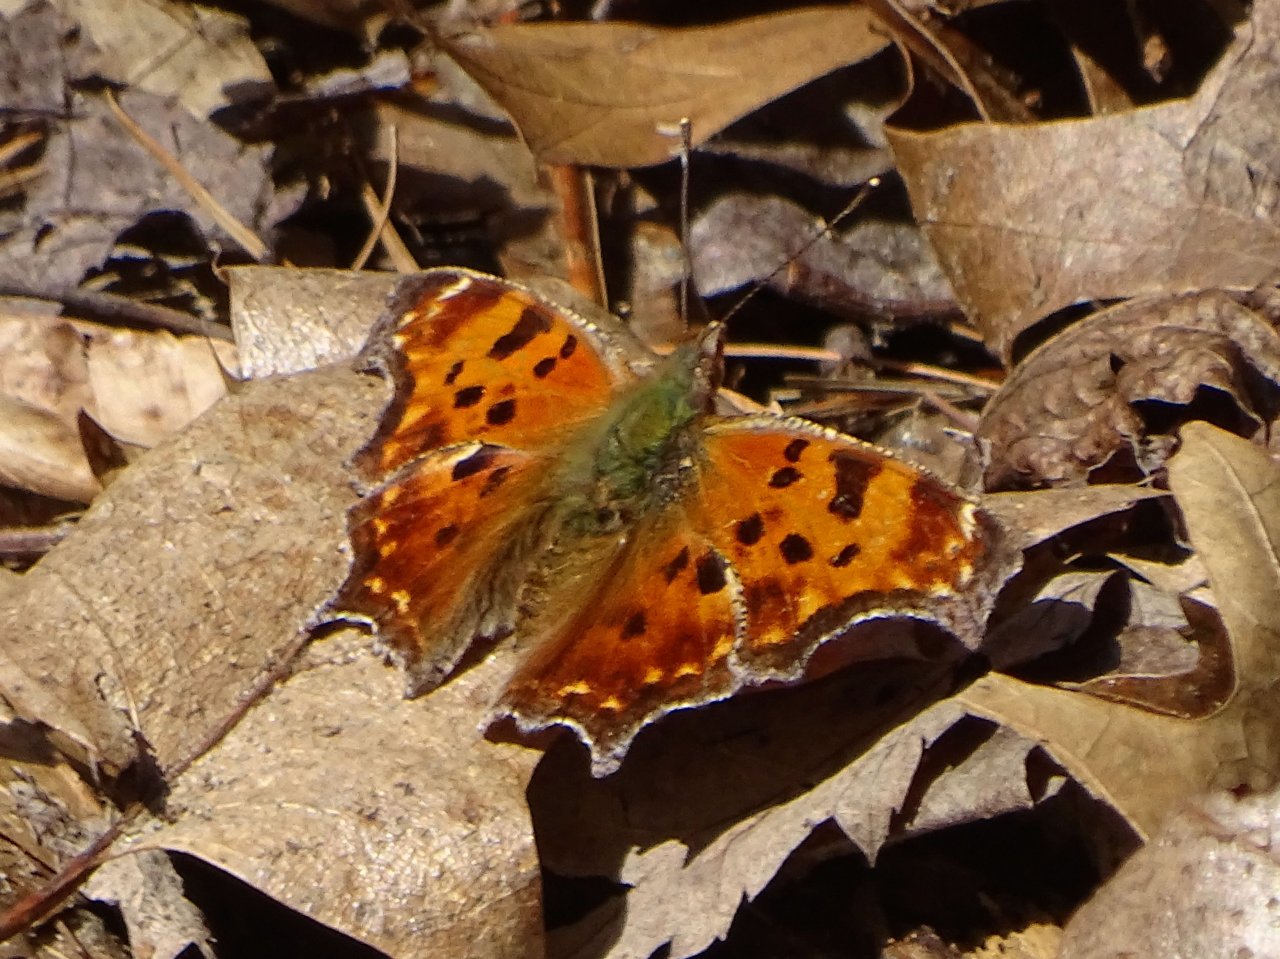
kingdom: Animalia
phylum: Arthropoda
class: Insecta
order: Lepidoptera
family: Nymphalidae
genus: Polygonia
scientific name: Polygonia comma
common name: Eastern Comma
